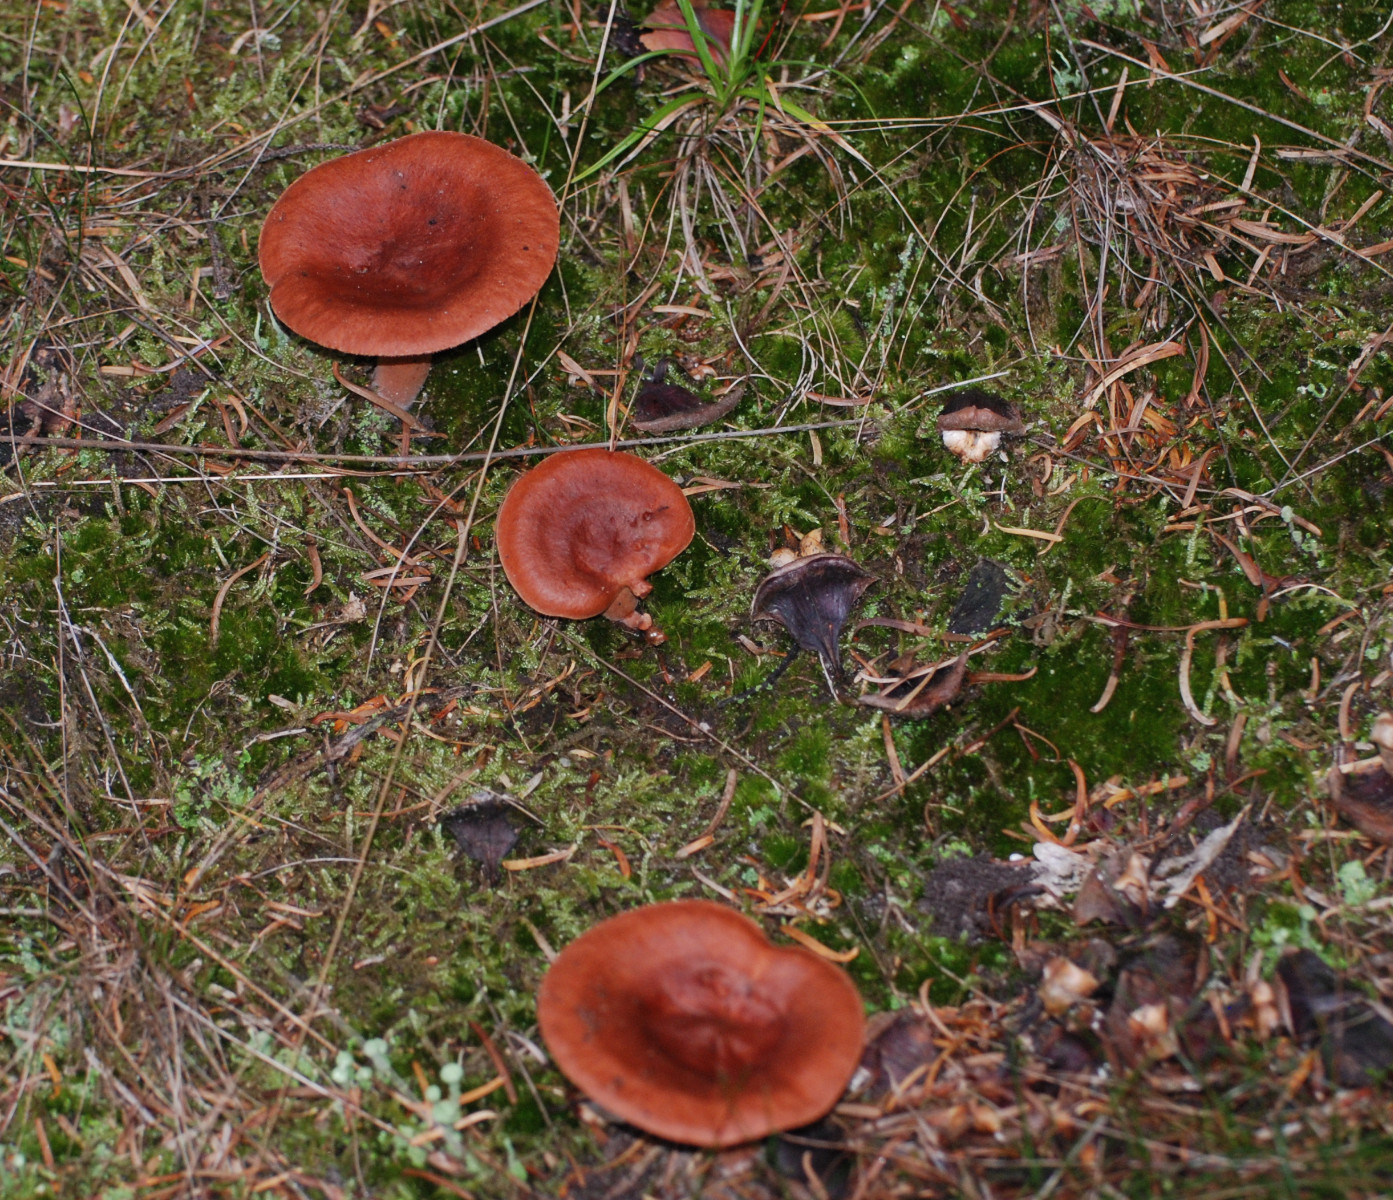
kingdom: Fungi
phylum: Basidiomycota
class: Agaricomycetes
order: Russulales
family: Russulaceae
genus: Lactarius
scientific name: Lactarius rufus
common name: rødbrun mælkehat
